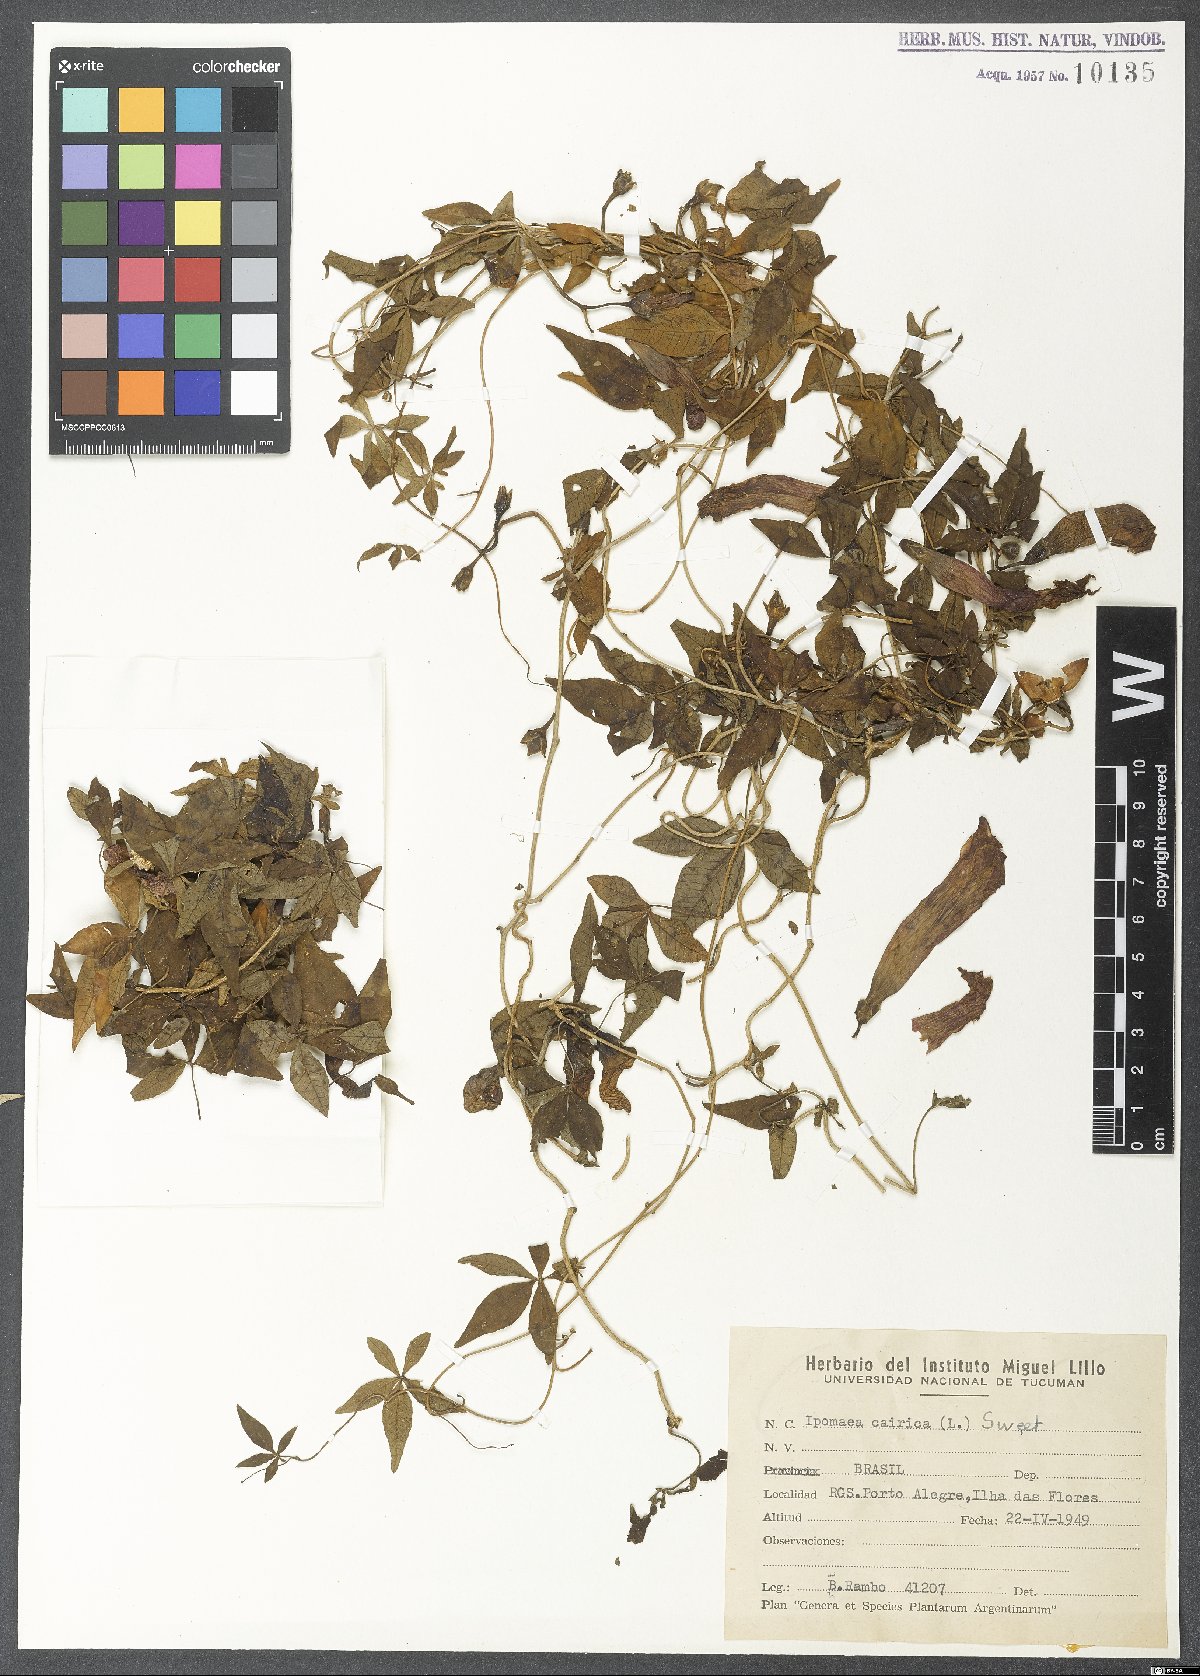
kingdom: Plantae
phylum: Tracheophyta
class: Magnoliopsida
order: Solanales
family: Convolvulaceae
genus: Ipomoea
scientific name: Ipomoea cairica
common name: Mile a minute vine
